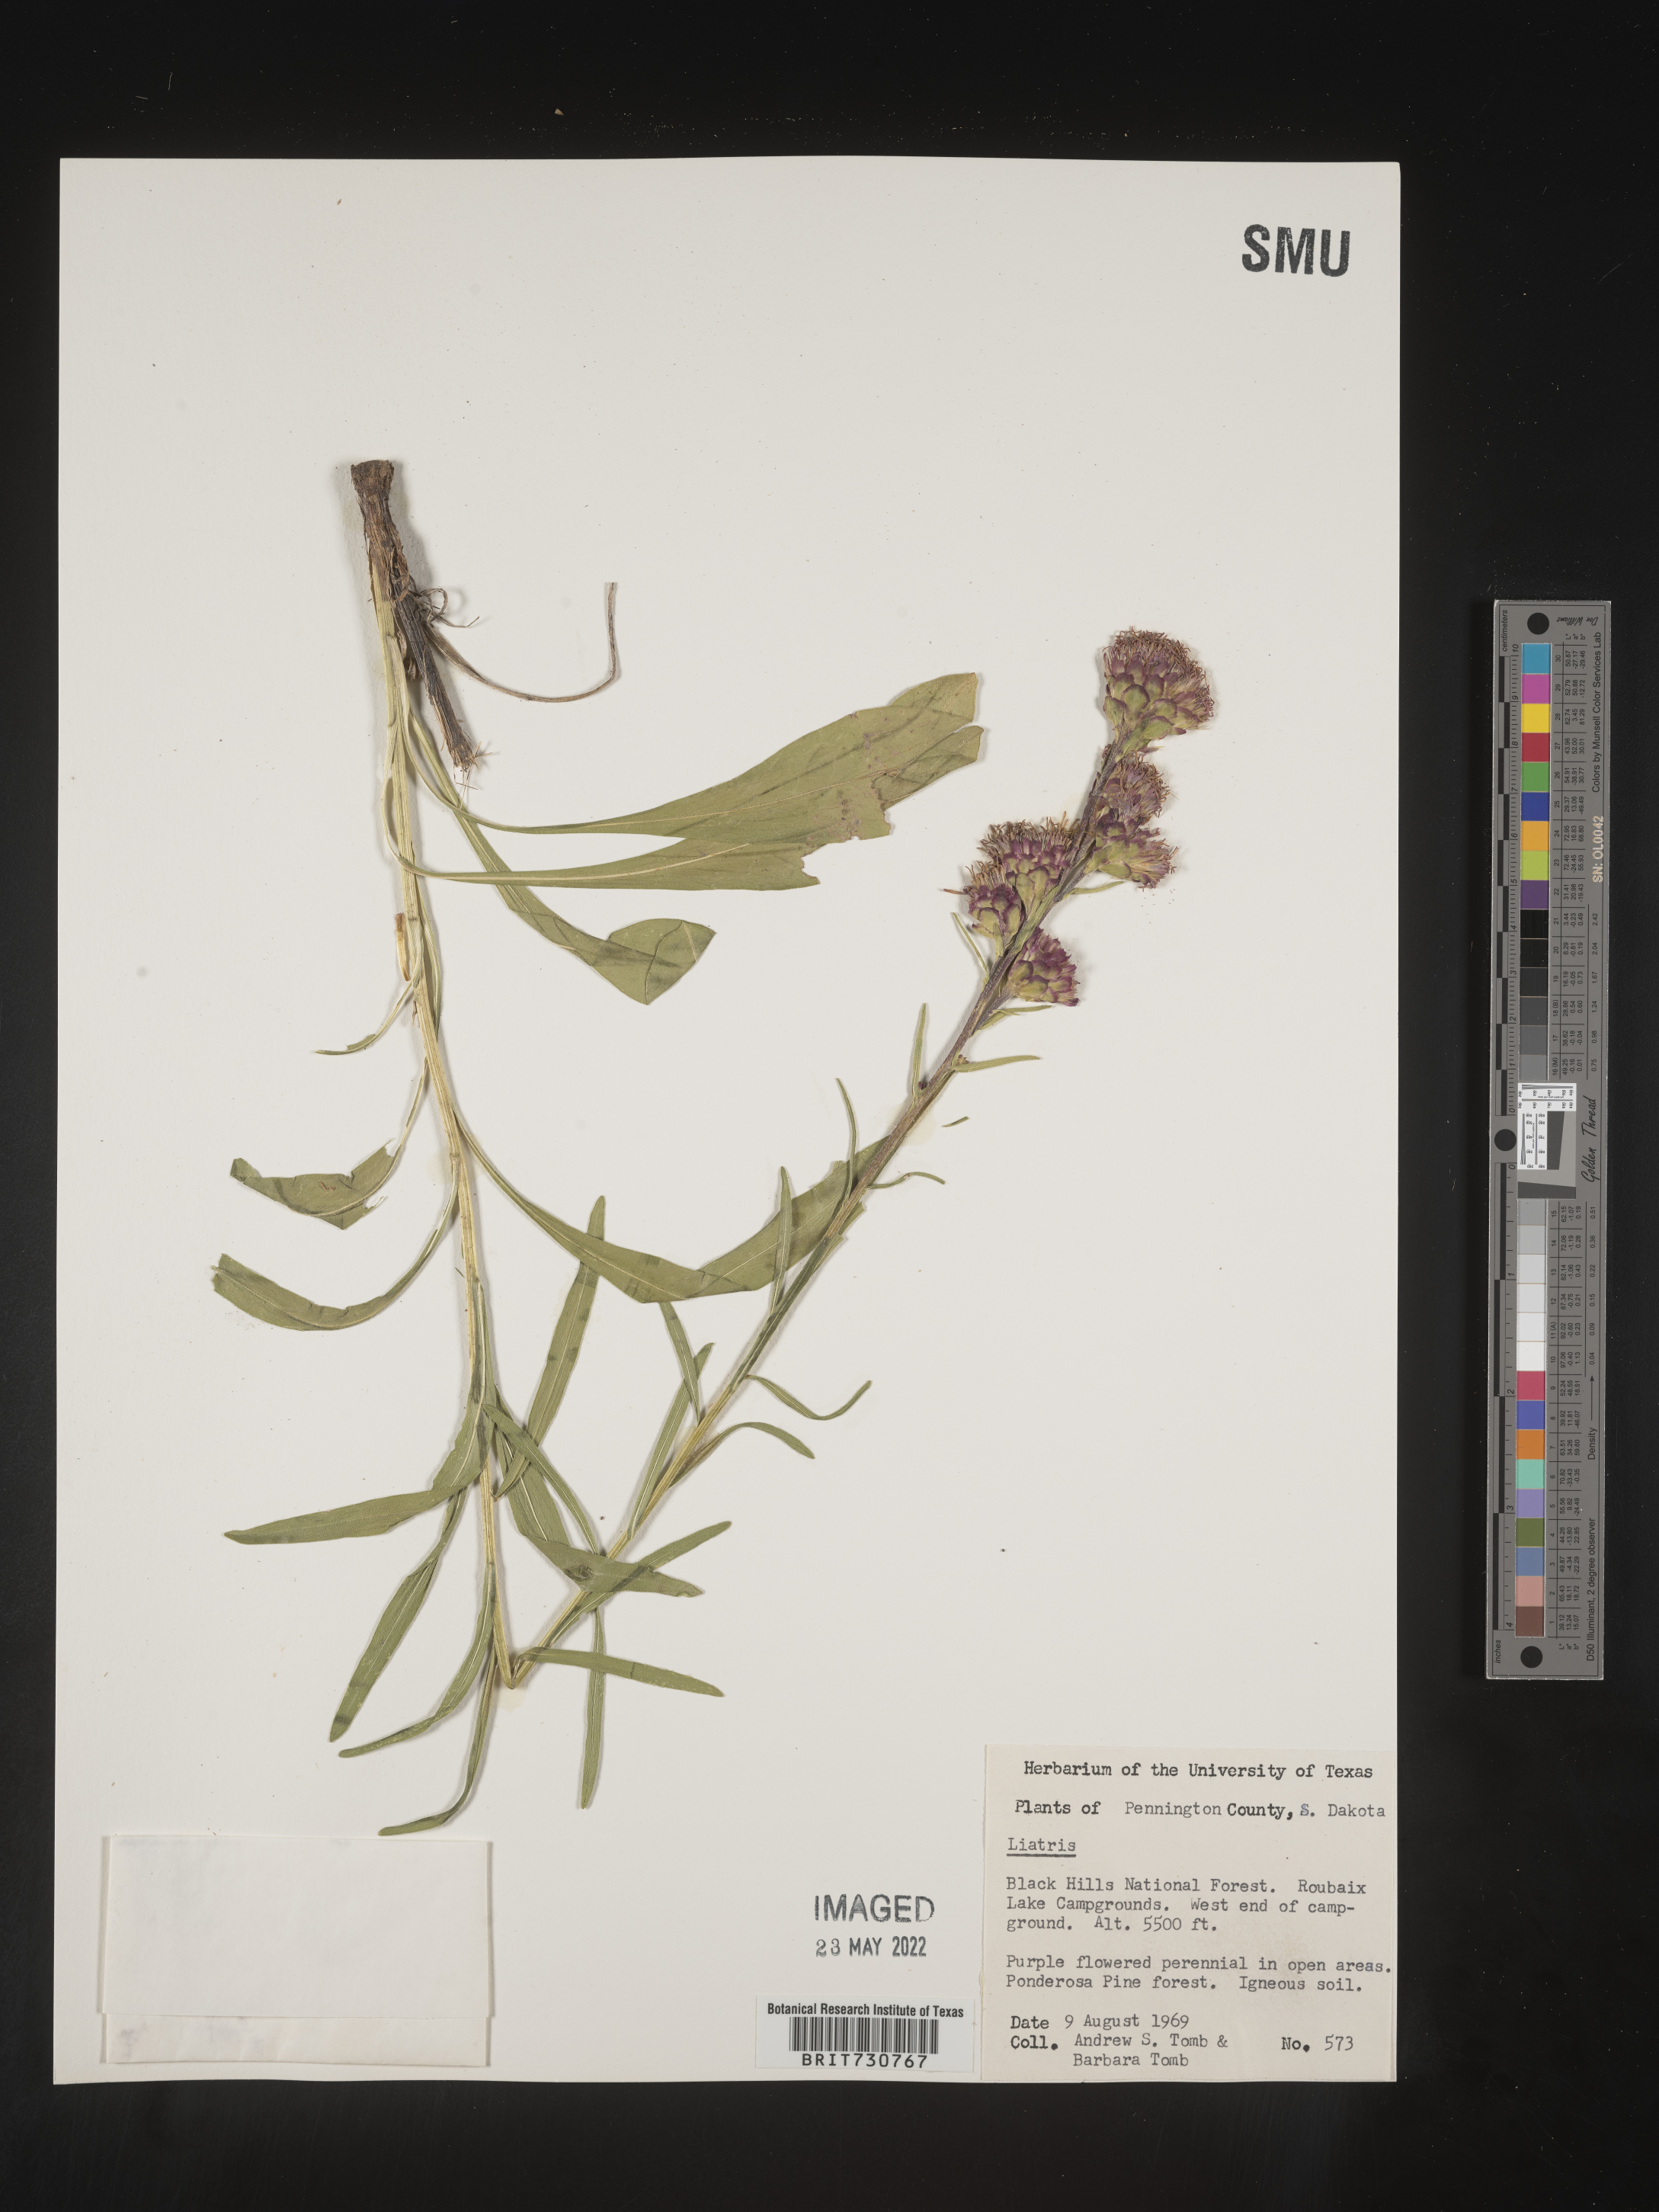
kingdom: Plantae
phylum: Tracheophyta
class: Magnoliopsida
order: Asterales
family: Asteraceae
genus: Liatris
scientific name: Liatris ligulistylis
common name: Northern plains gayfeather
